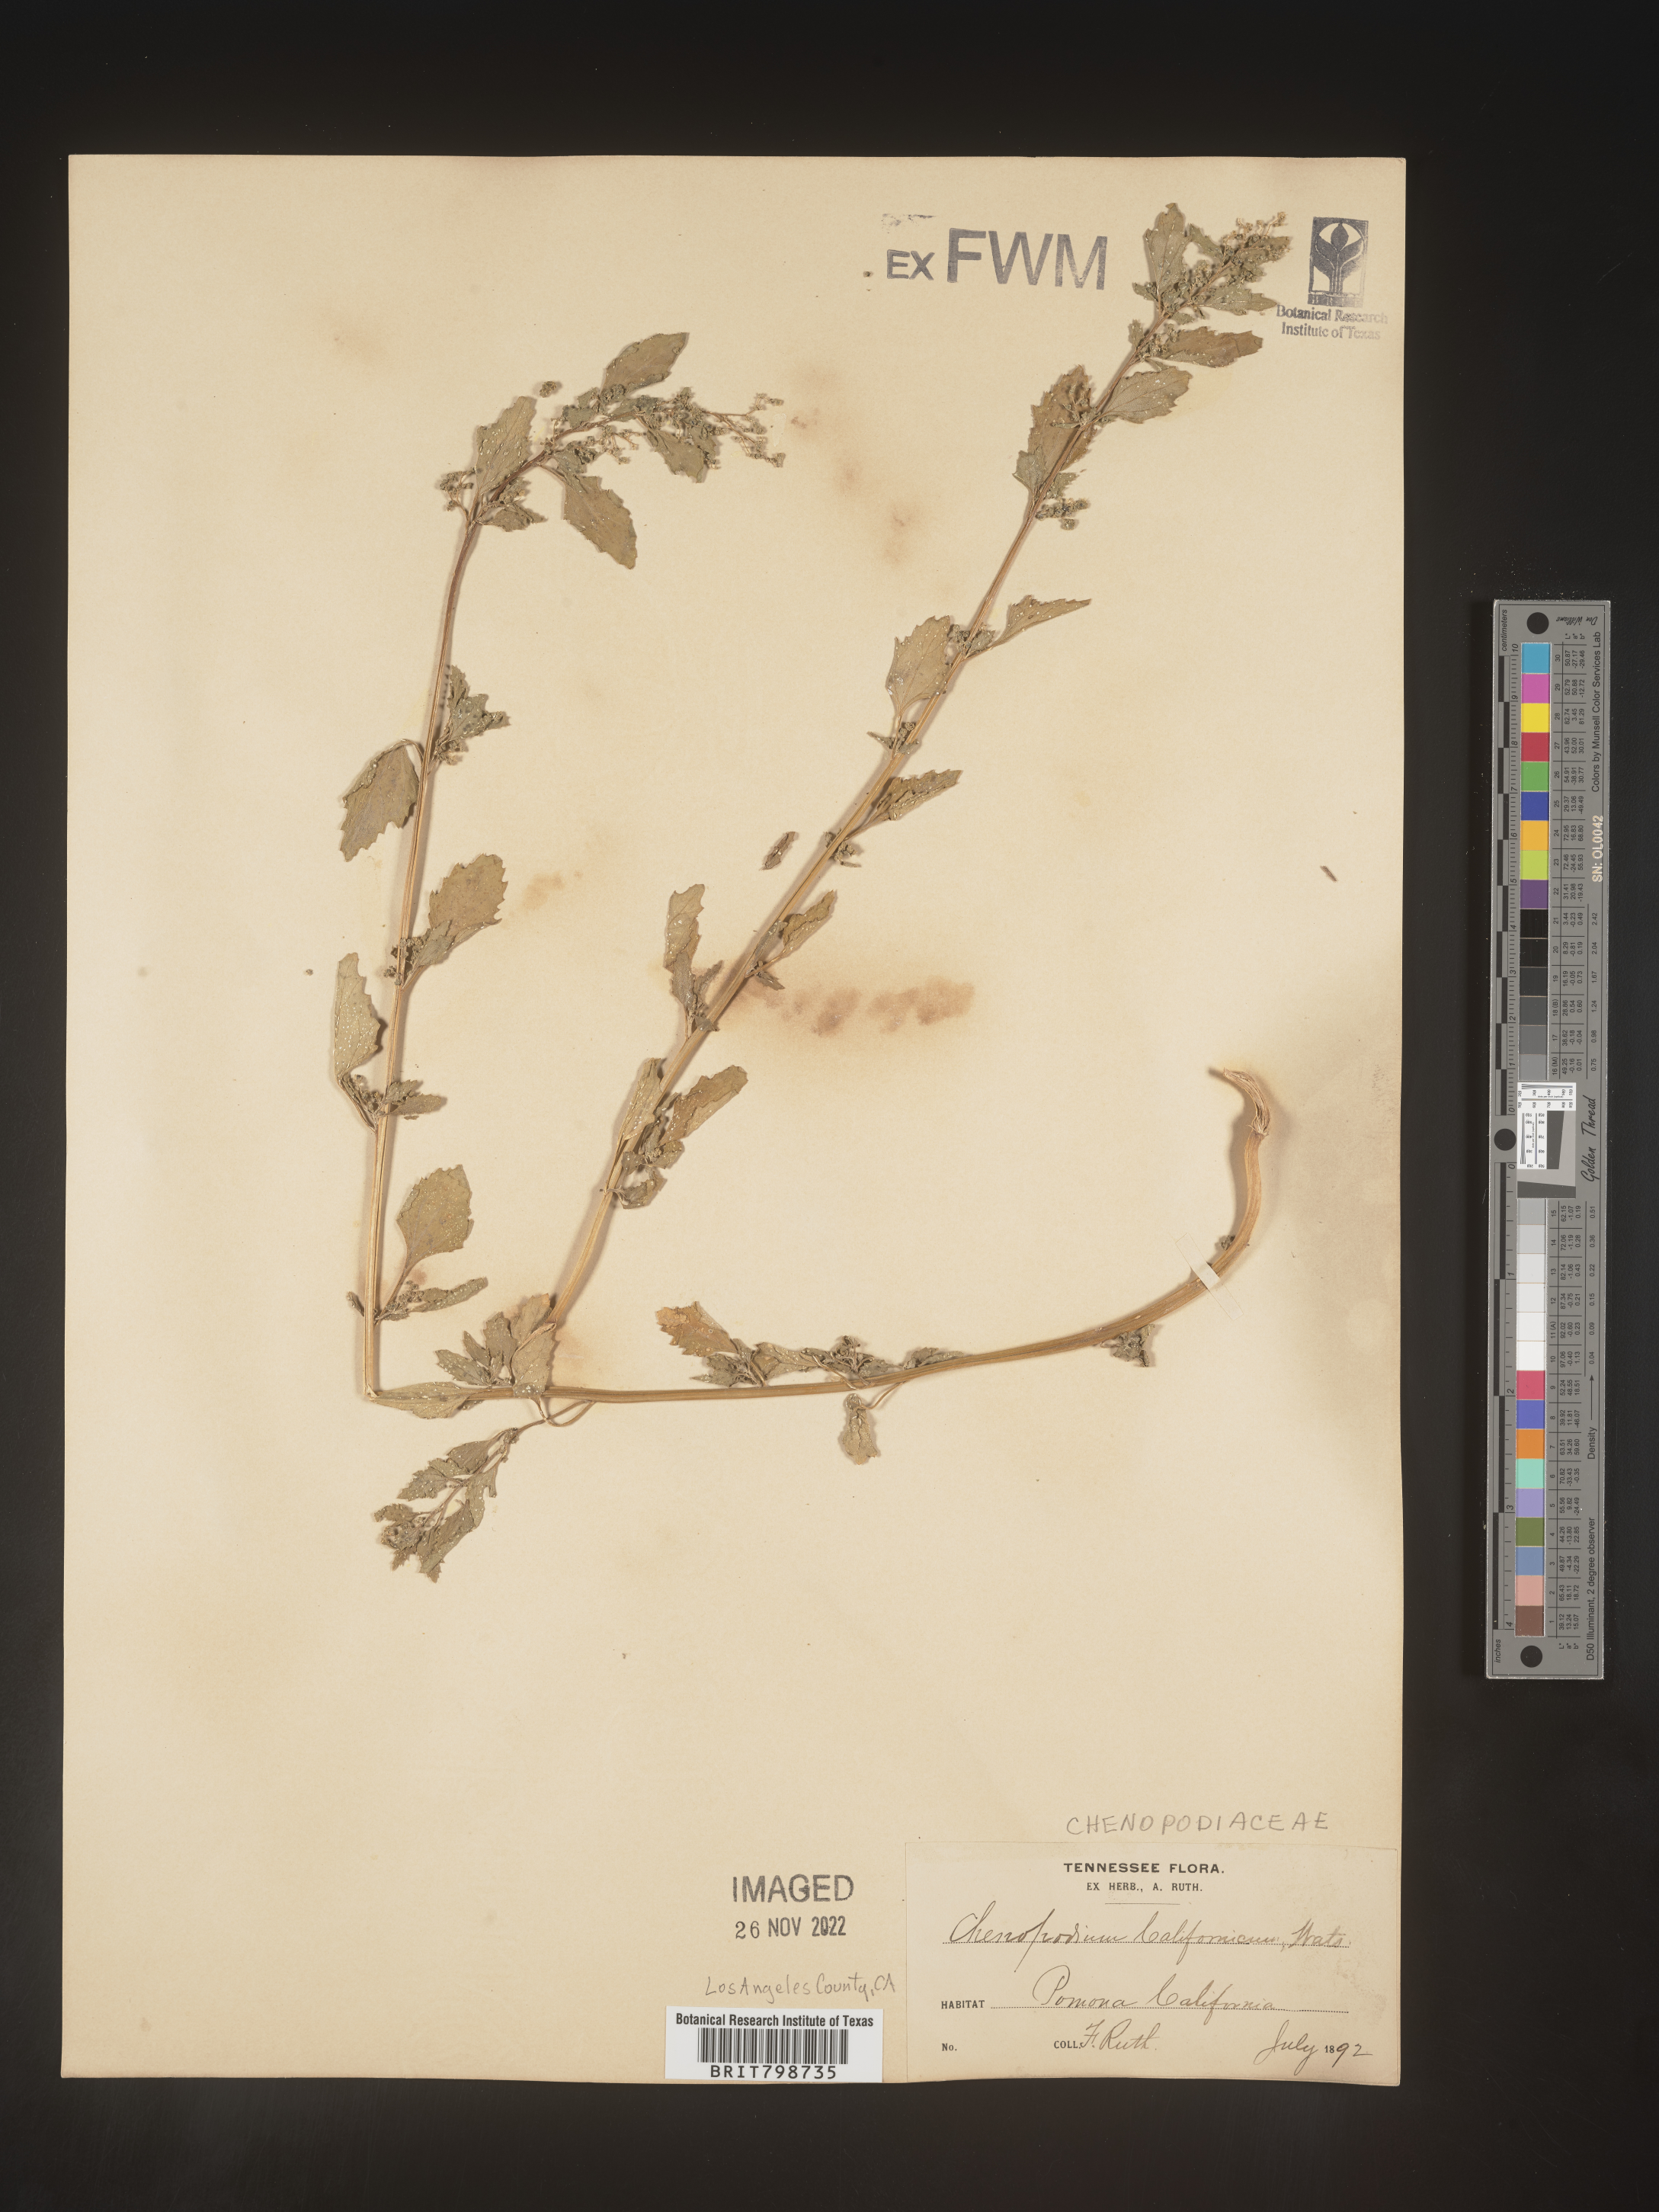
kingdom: Plantae
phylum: Tracheophyta
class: Magnoliopsida
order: Caryophyllales
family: Amaranthaceae
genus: Blitum
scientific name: Blitum californicum
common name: California goosefoot
